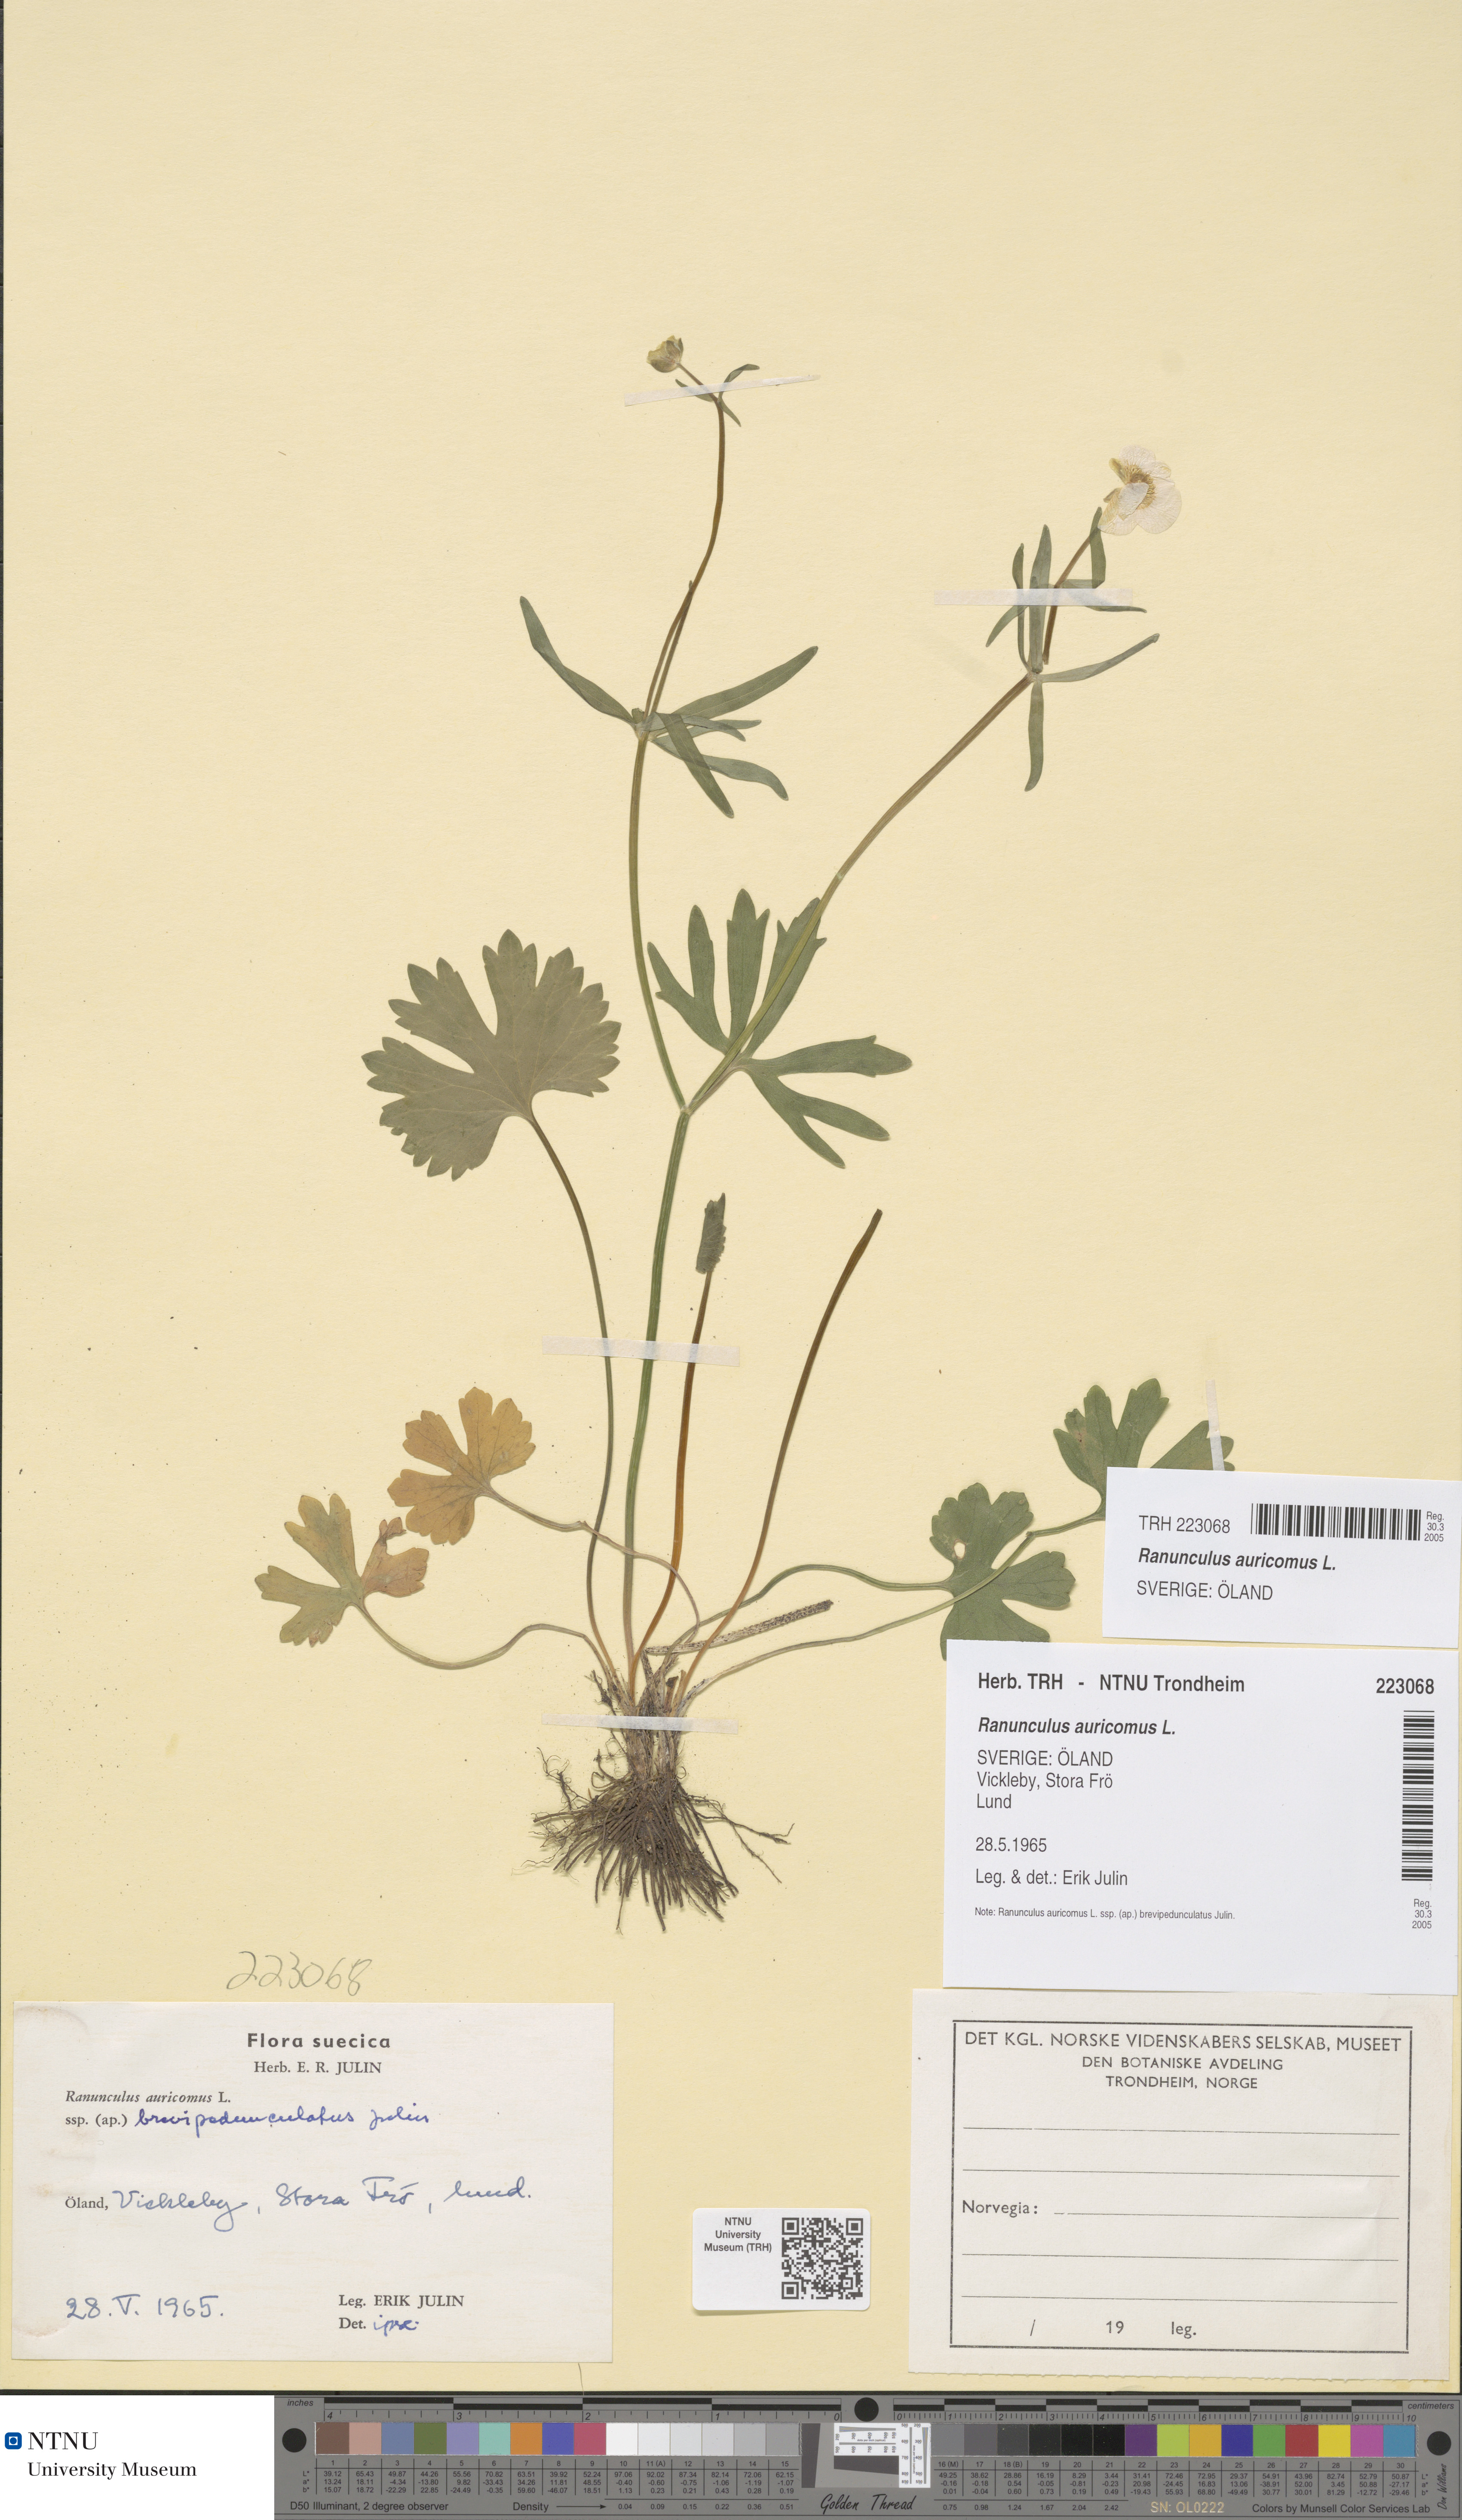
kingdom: Plantae
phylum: Tracheophyta
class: Magnoliopsida
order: Ranunculales
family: Ranunculaceae
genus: Ranunculus
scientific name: Ranunculus auricomus
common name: Goldilocks buttercup
